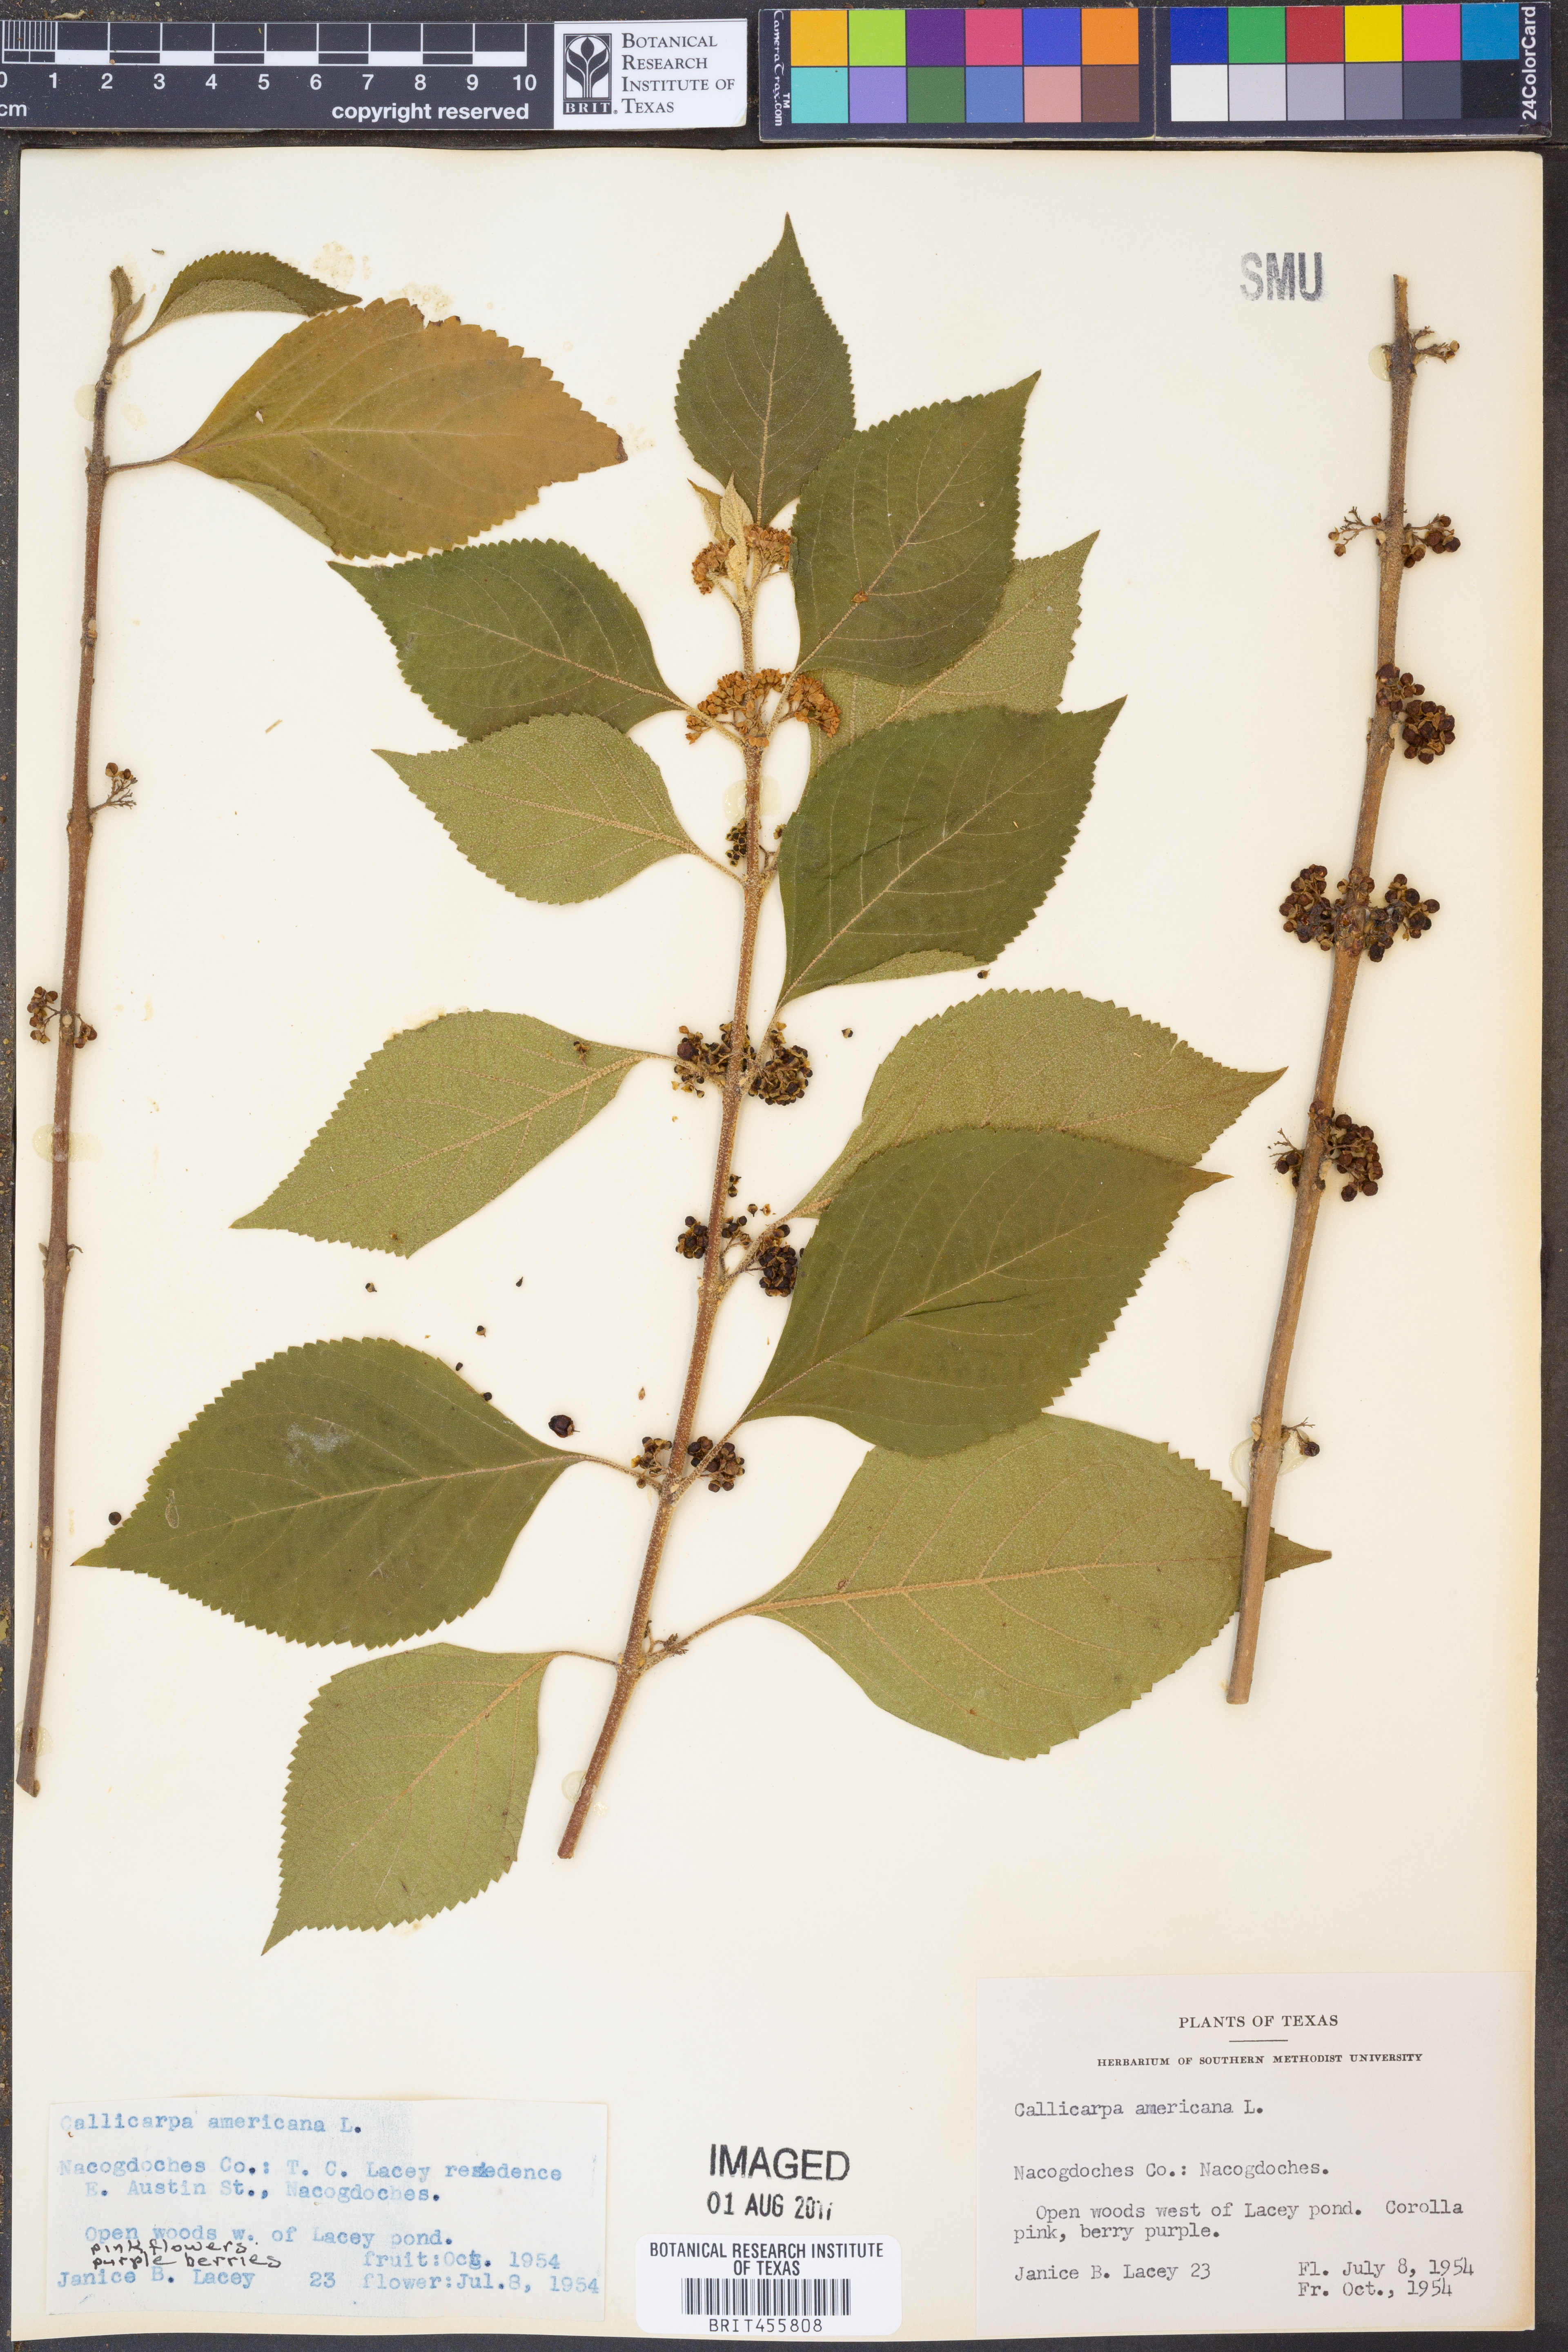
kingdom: Plantae
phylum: Tracheophyta
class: Magnoliopsida
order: Lamiales
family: Lamiaceae
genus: Callicarpa
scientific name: Callicarpa americana
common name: American beautyberry
